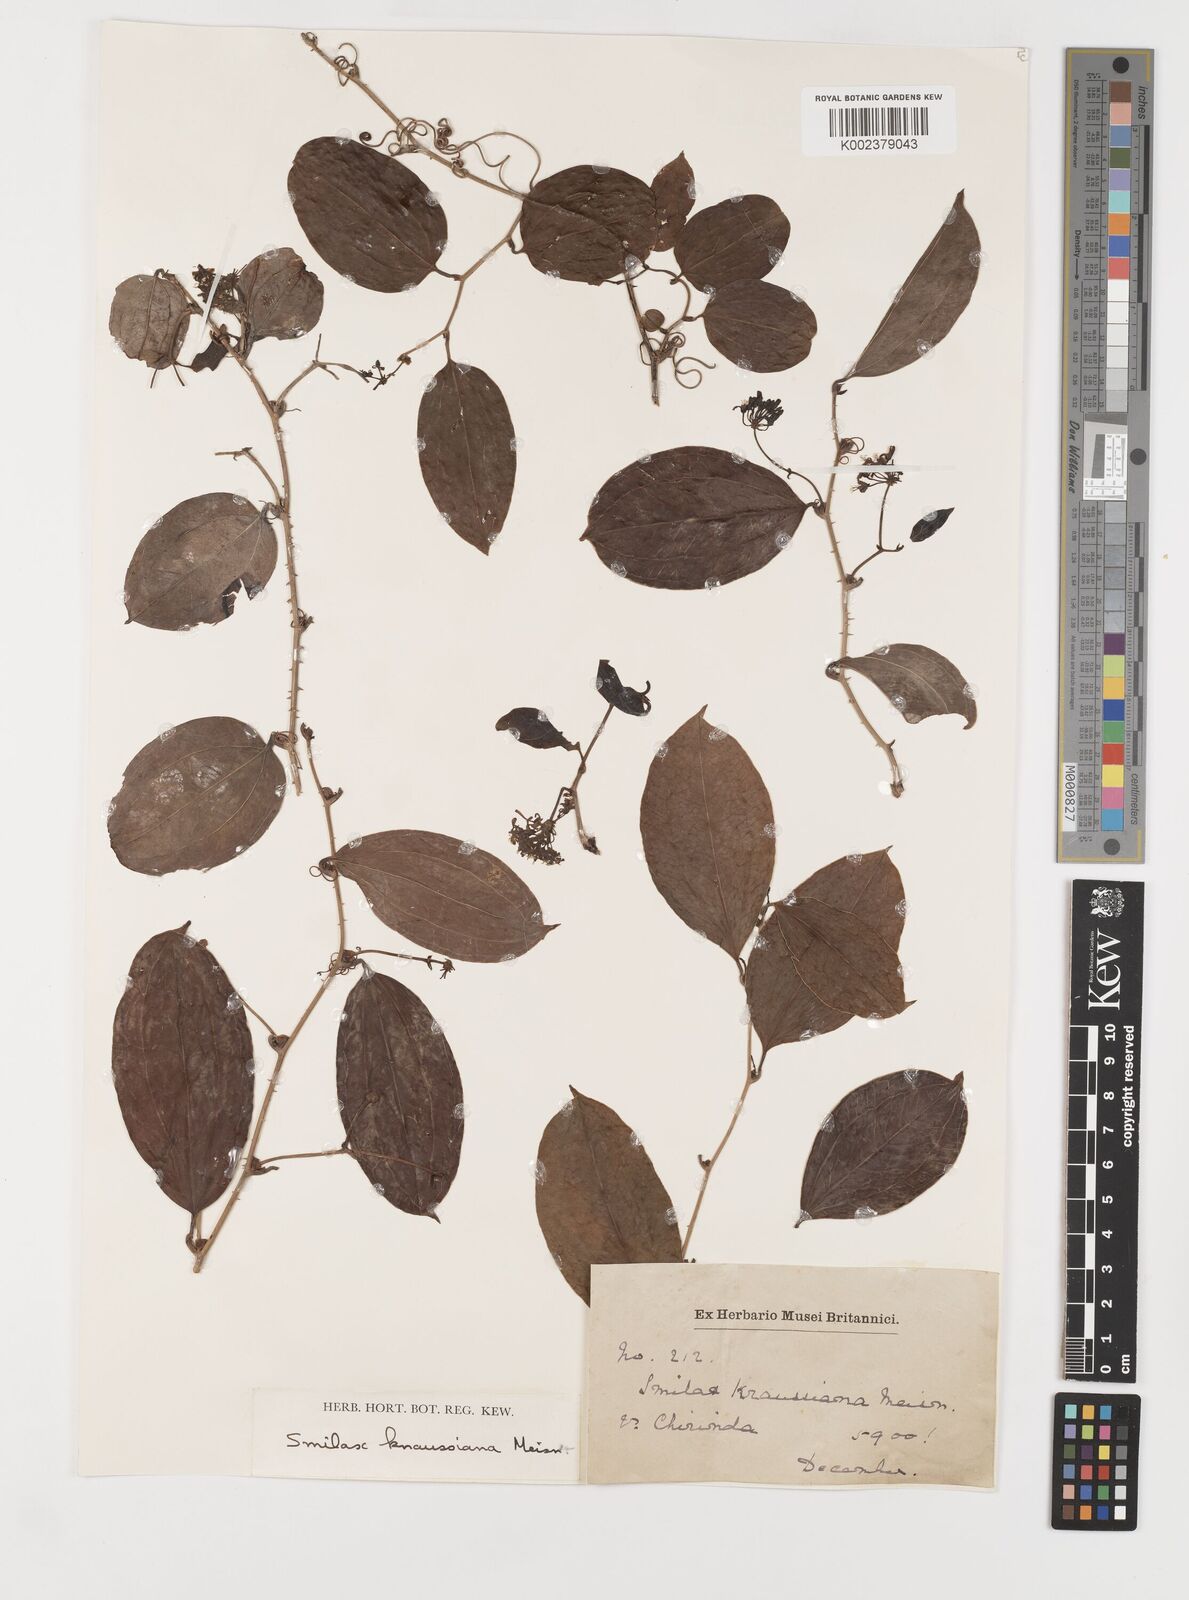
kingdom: Plantae
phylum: Tracheophyta
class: Liliopsida
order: Liliales
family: Smilacaceae
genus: Smilax
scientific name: Smilax anceps
